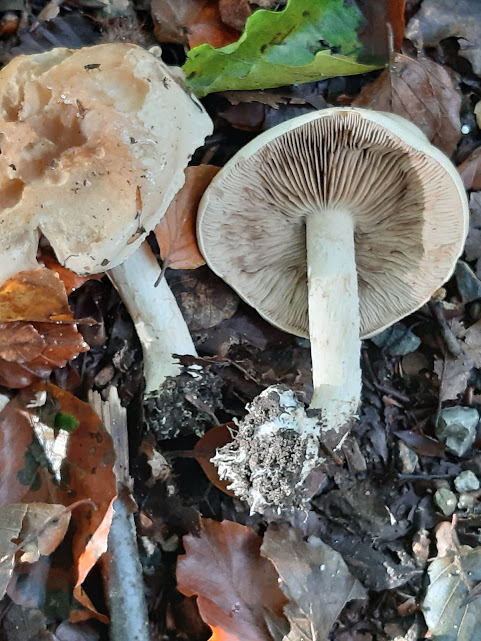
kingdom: Fungi
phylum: Basidiomycota
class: Agaricomycetes
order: Agaricales
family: Hymenogastraceae
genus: Hebeloma
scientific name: Hebeloma
